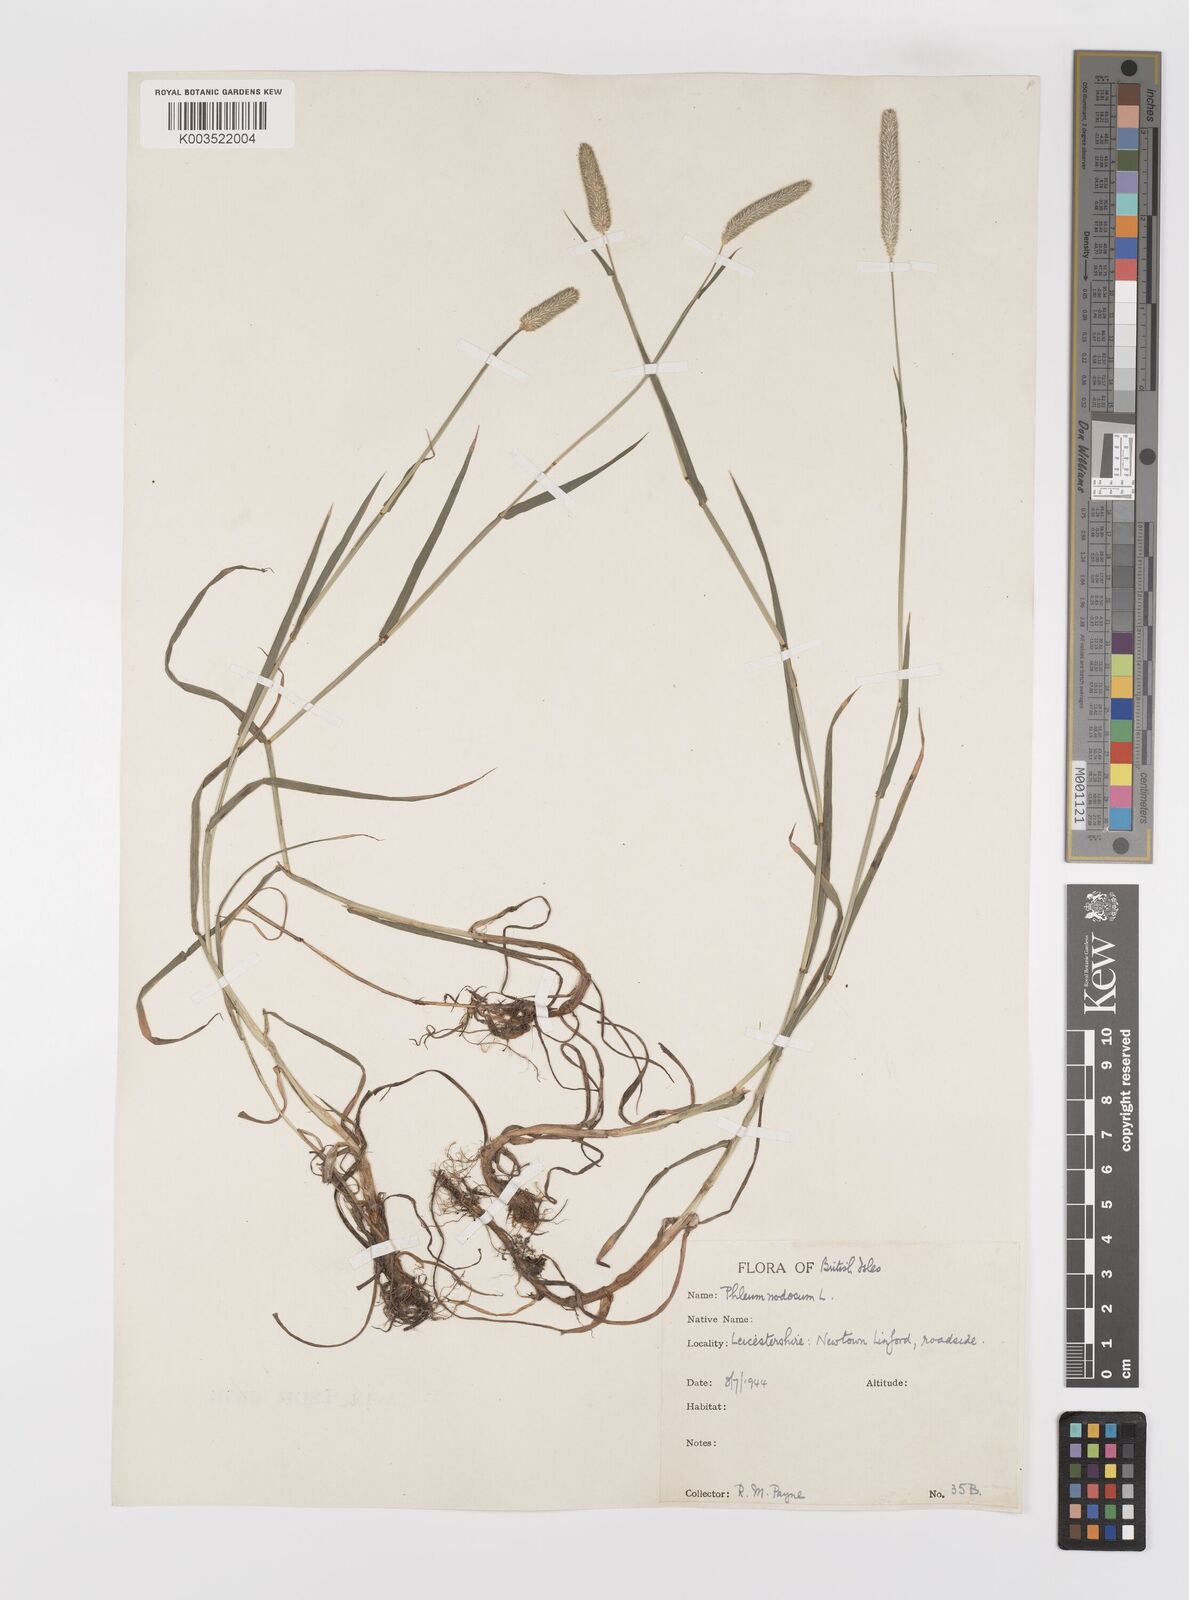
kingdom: Plantae
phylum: Tracheophyta
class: Liliopsida
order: Poales
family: Poaceae
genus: Phleum
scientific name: Phleum bertolonii
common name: Smaller cat's-tail
